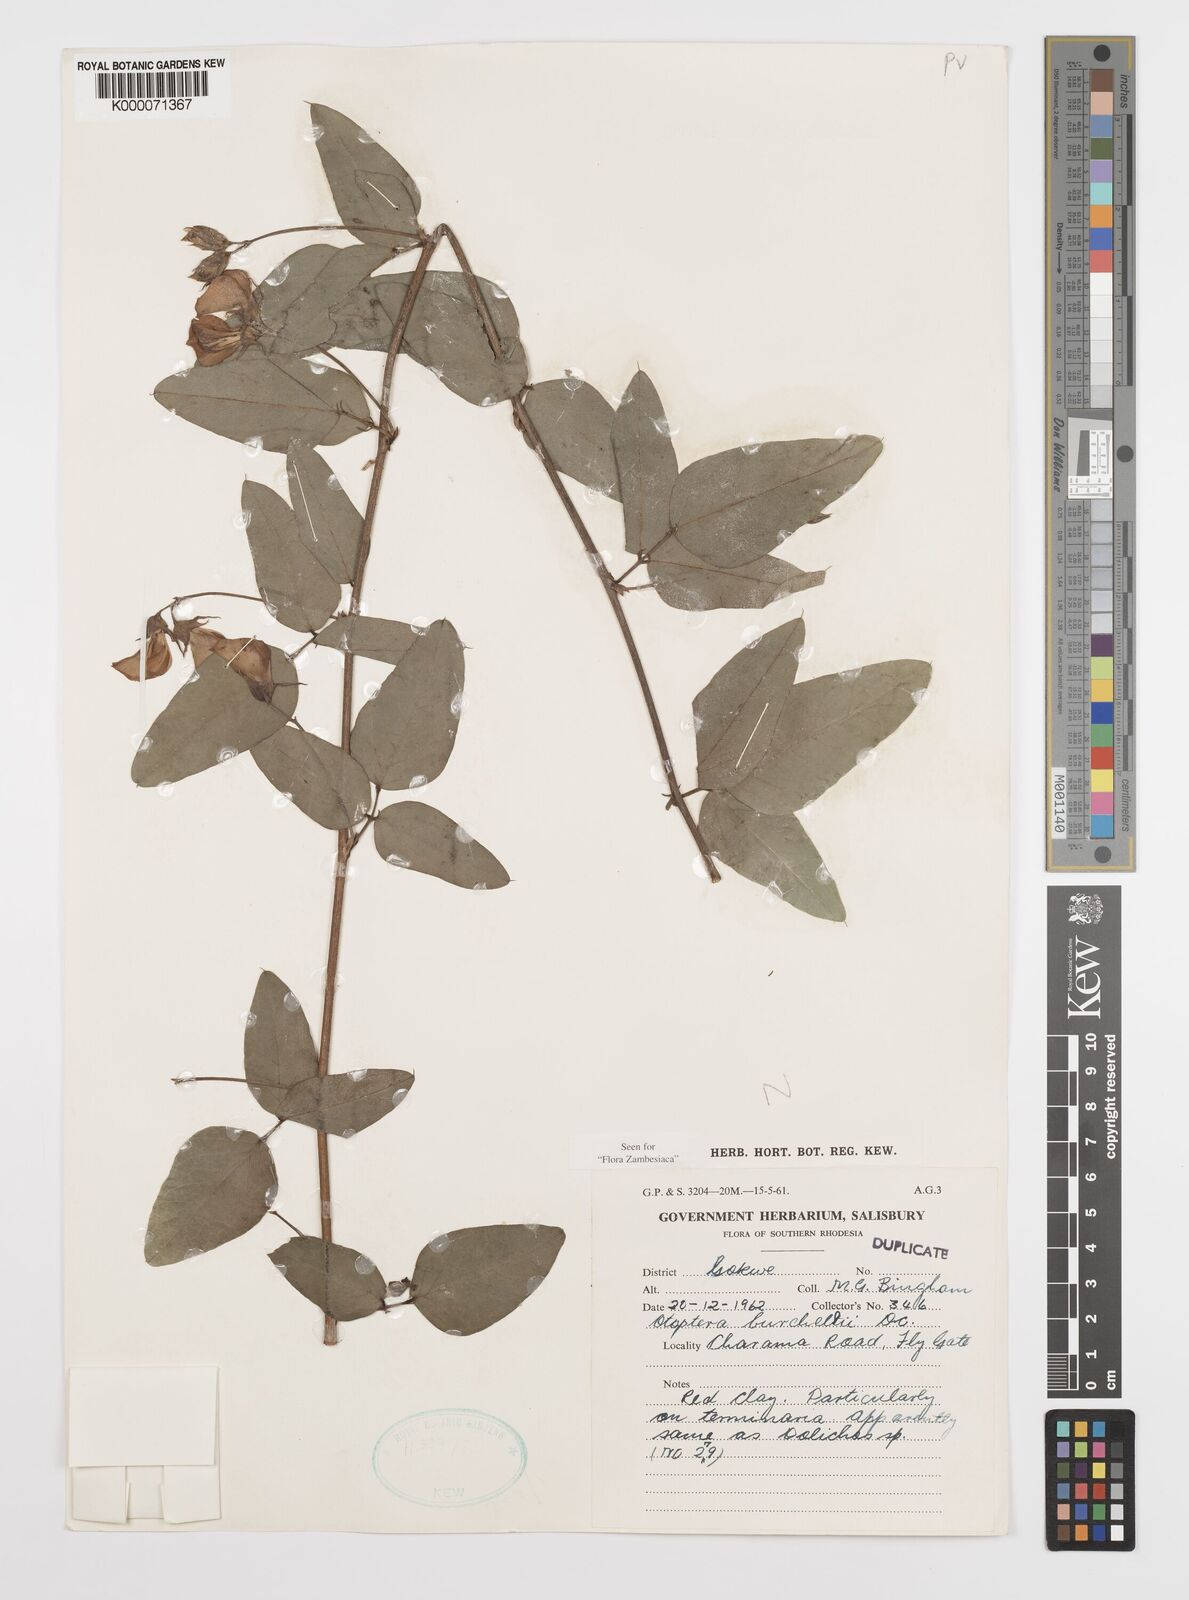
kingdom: Plantae
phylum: Tracheophyta
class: Magnoliopsida
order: Fabales
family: Fabaceae
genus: Otoptera
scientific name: Otoptera burchellii
